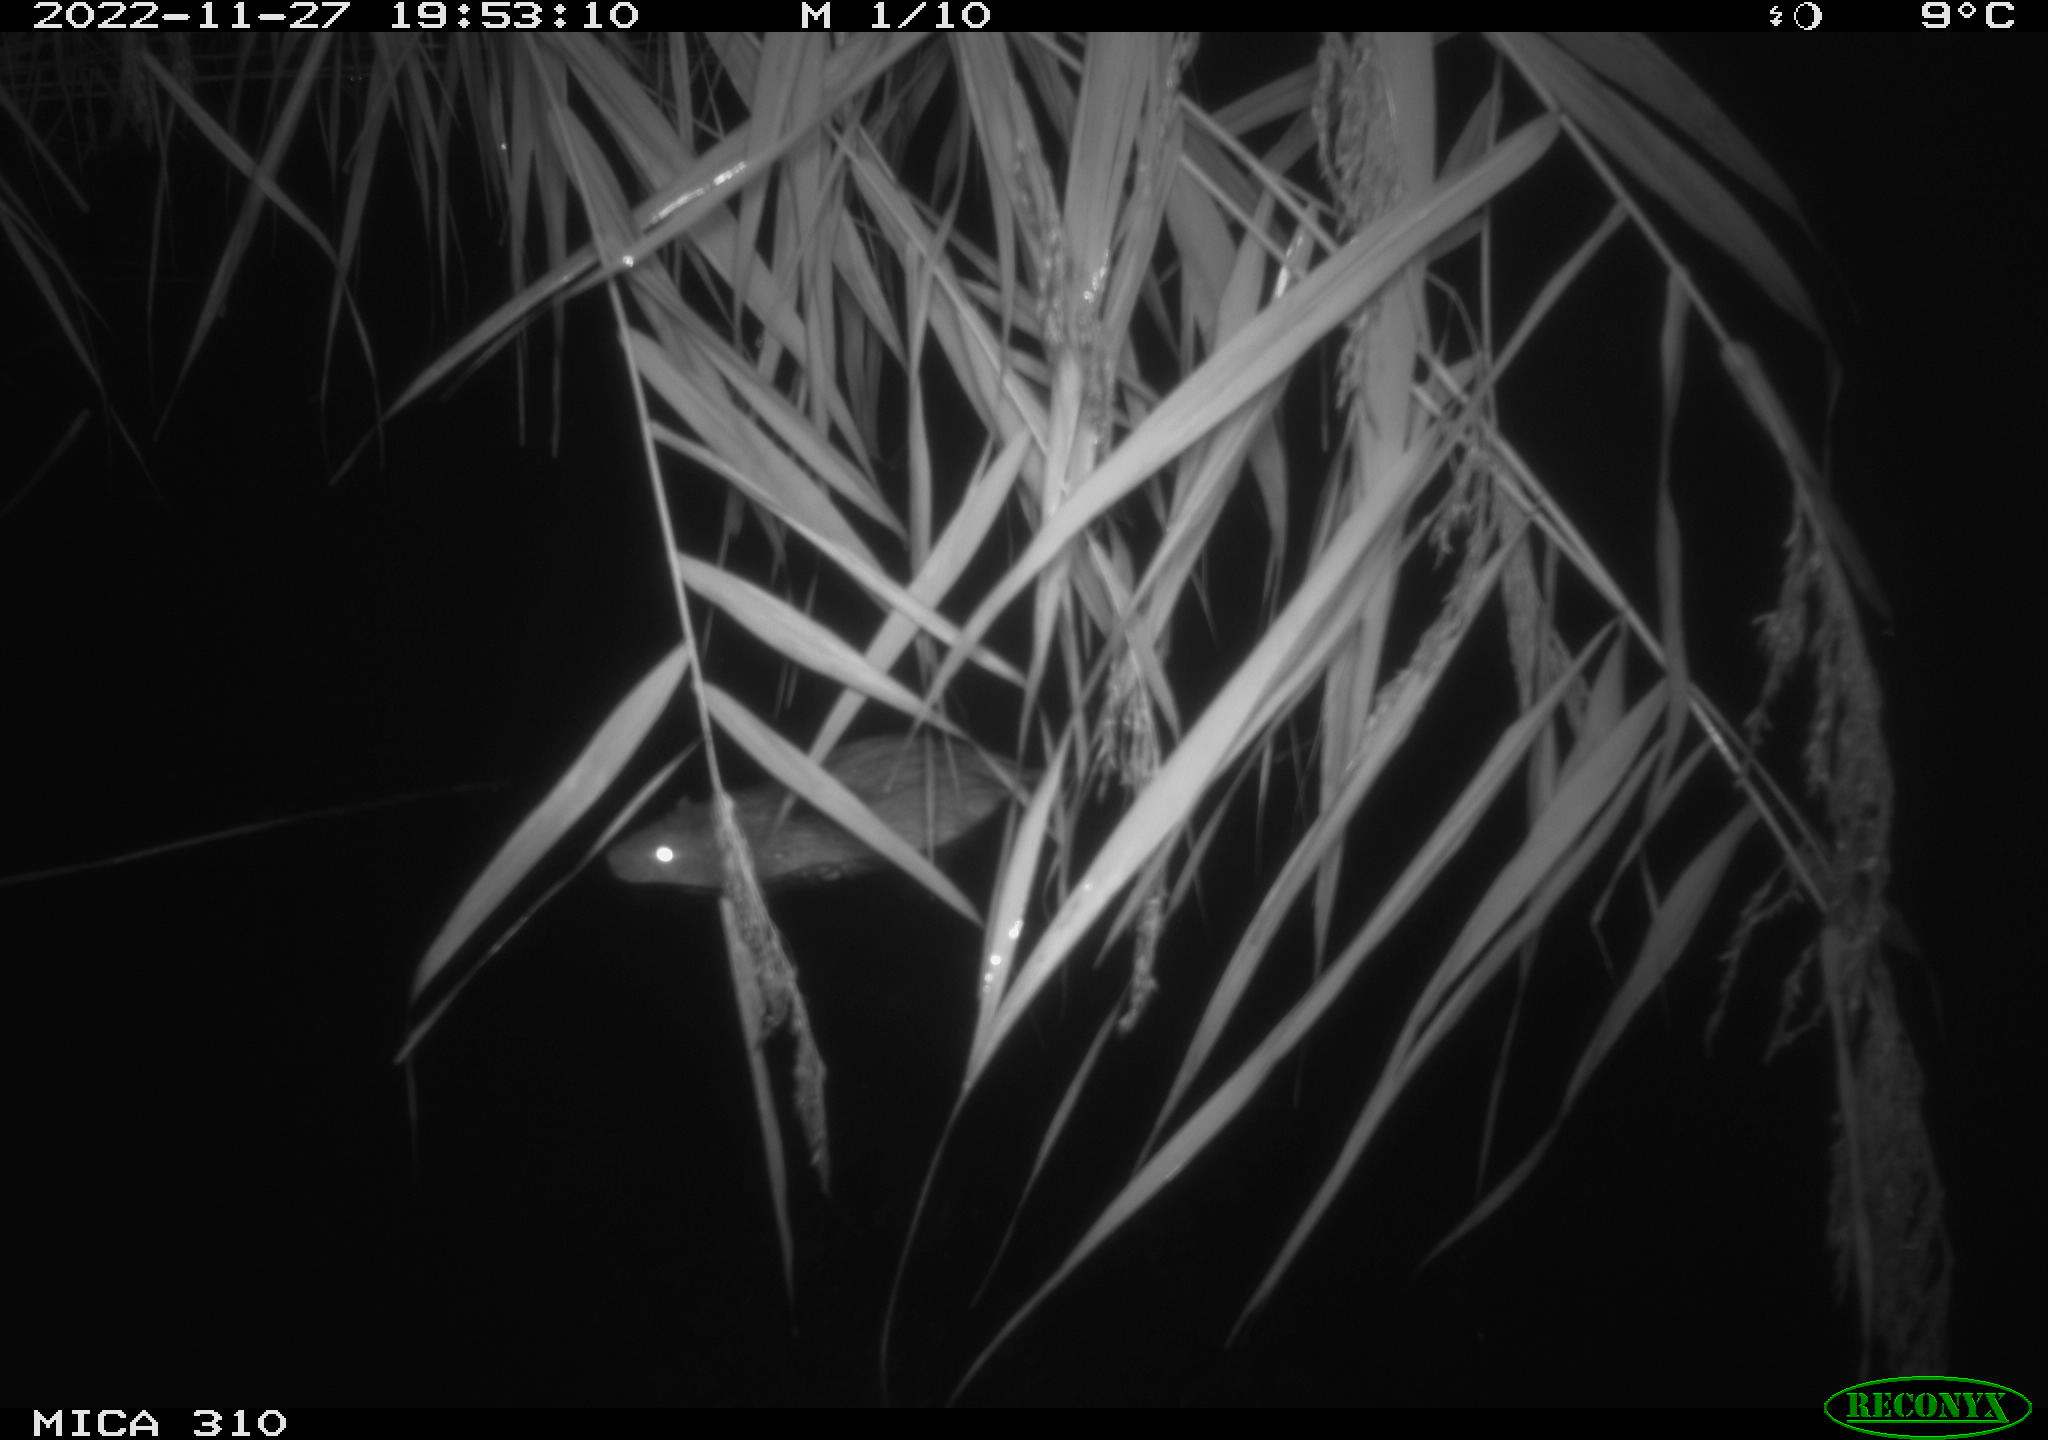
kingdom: Animalia
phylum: Chordata
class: Mammalia
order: Rodentia
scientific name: Rodentia
